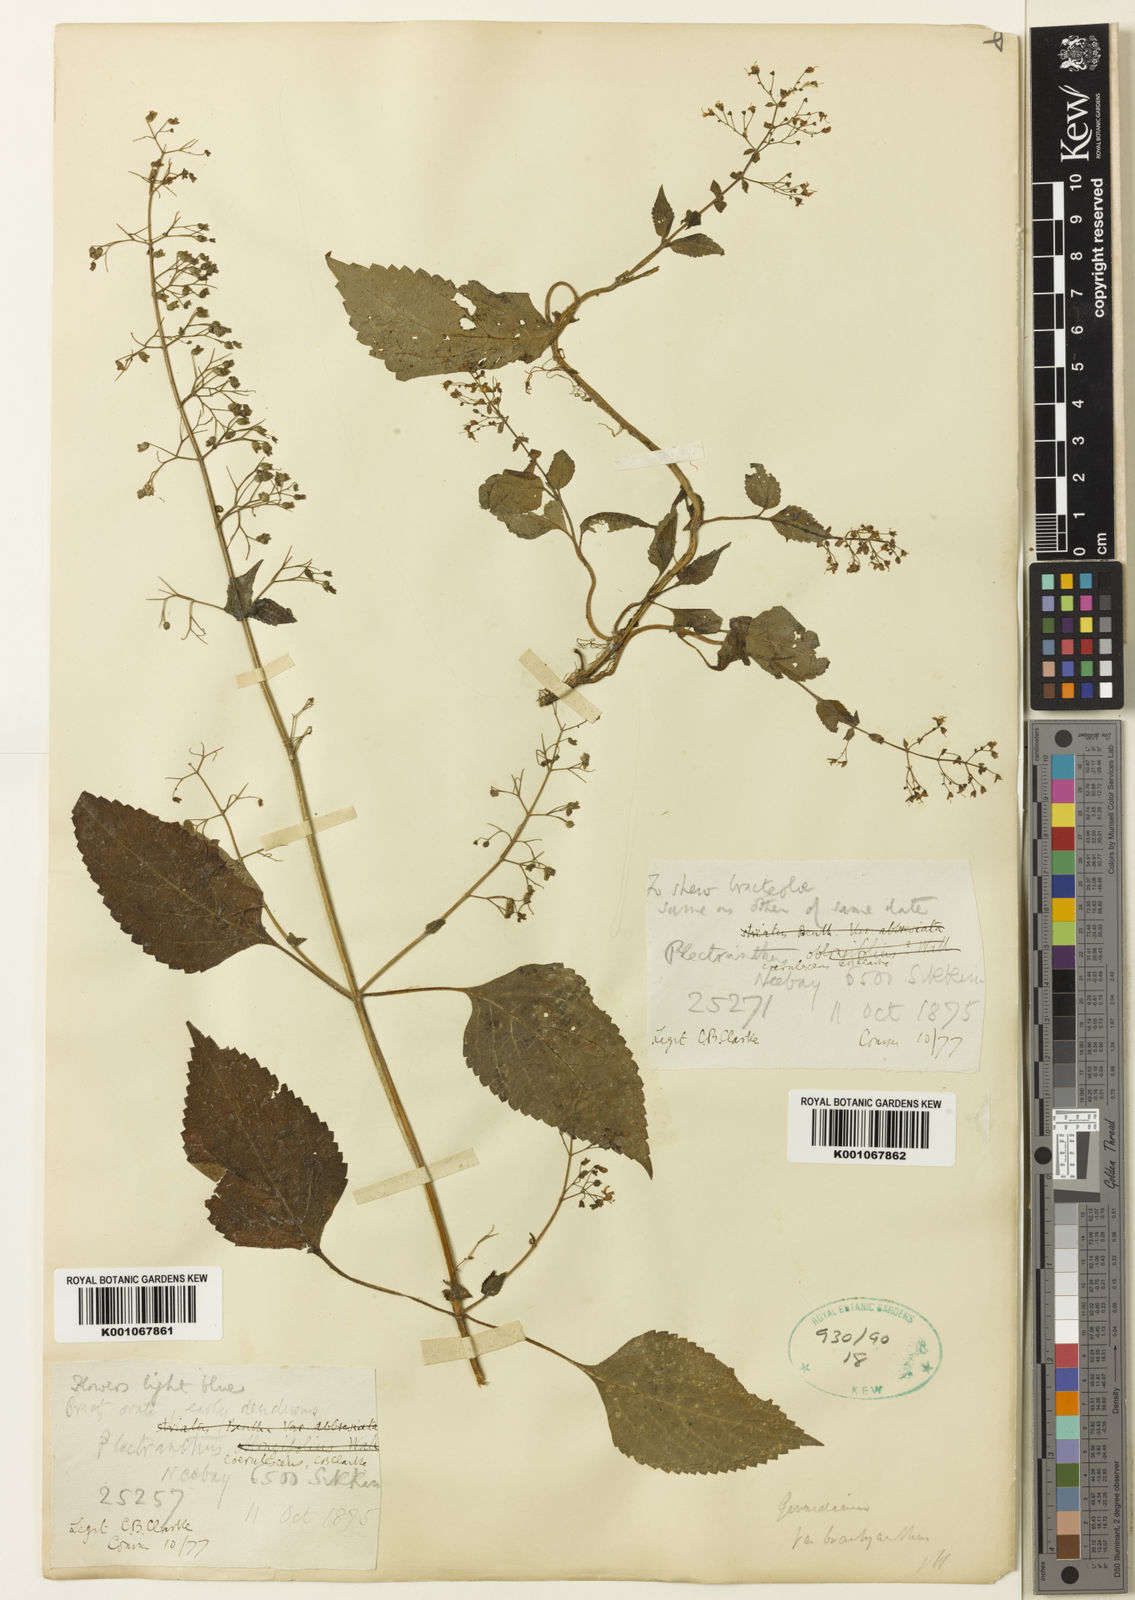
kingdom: Plantae
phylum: Tracheophyta
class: Magnoliopsida
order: Lamiales
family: Lamiaceae
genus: Isodon
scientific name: Isodon lophanthoides
